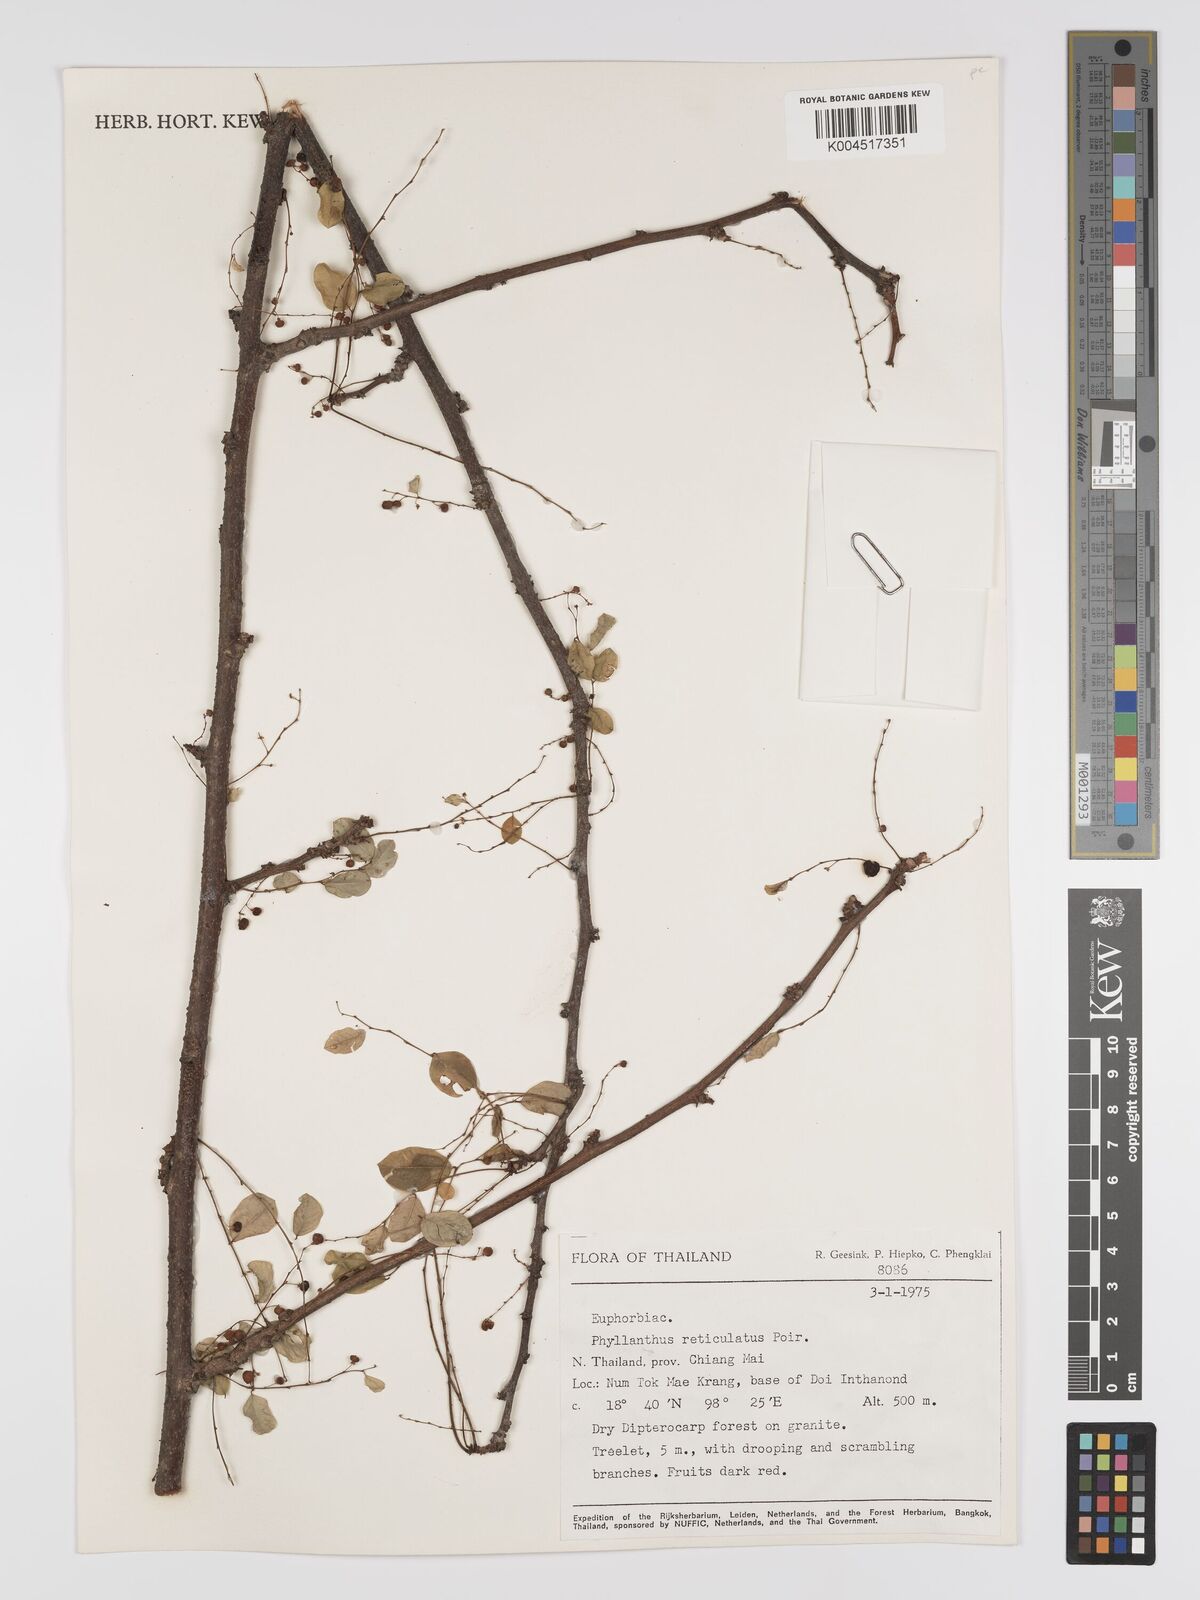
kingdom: Plantae
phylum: Tracheophyta
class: Magnoliopsida
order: Malpighiales
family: Phyllanthaceae
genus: Phyllanthus
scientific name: Phyllanthus reticulatus
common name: Potato bush
